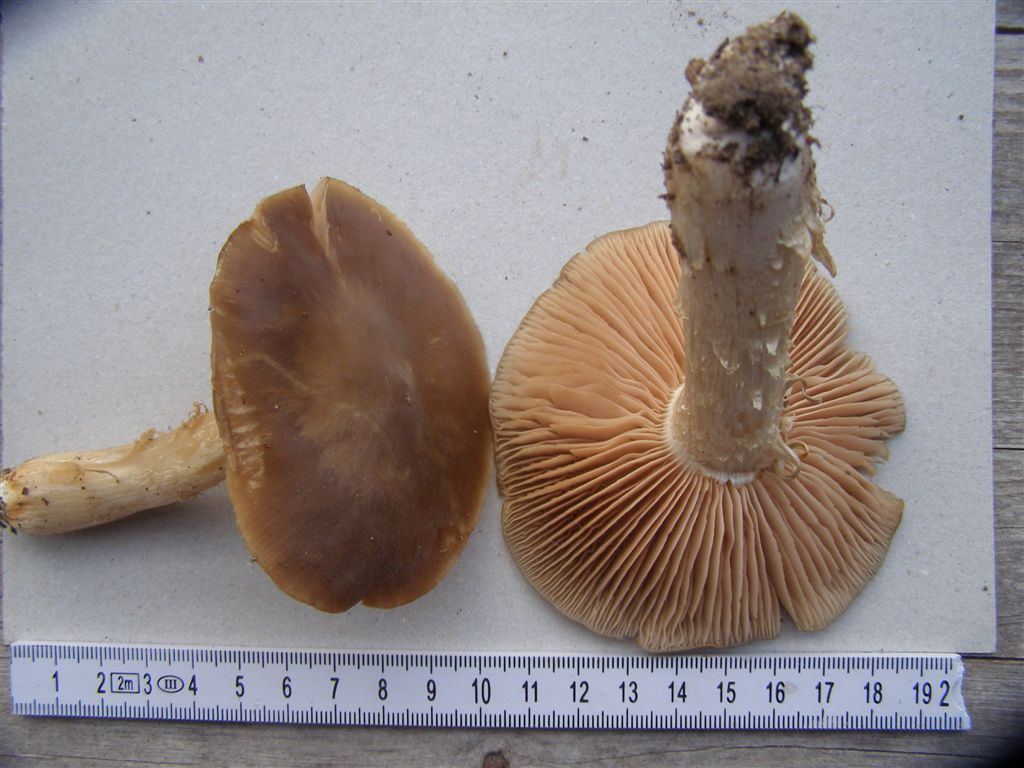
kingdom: Fungi
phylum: Basidiomycota
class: Agaricomycetes
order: Agaricales
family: Entolomataceae
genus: Entoloma
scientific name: Entoloma lividoalbum
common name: lysstokket rødblad
